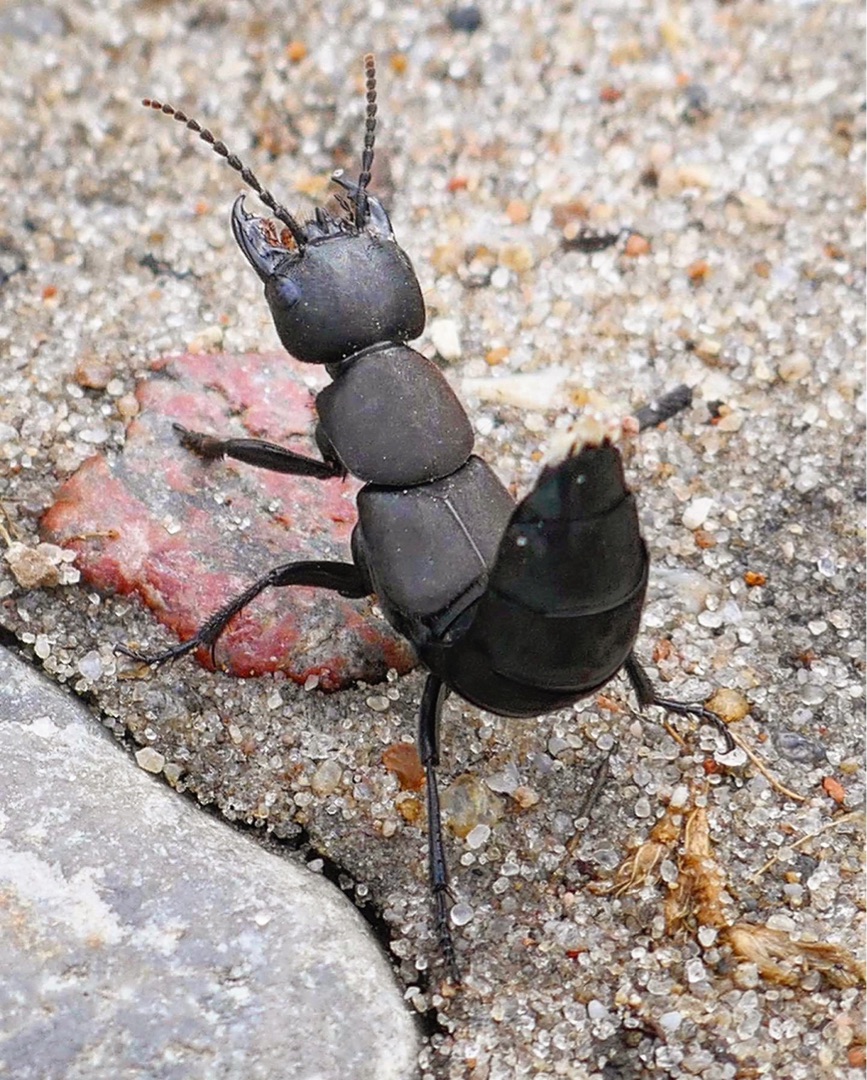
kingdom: Animalia
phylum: Arthropoda
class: Insecta
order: Coleoptera
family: Staphylinidae
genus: Ocypus
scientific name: Ocypus olens
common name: Stor rovbille
